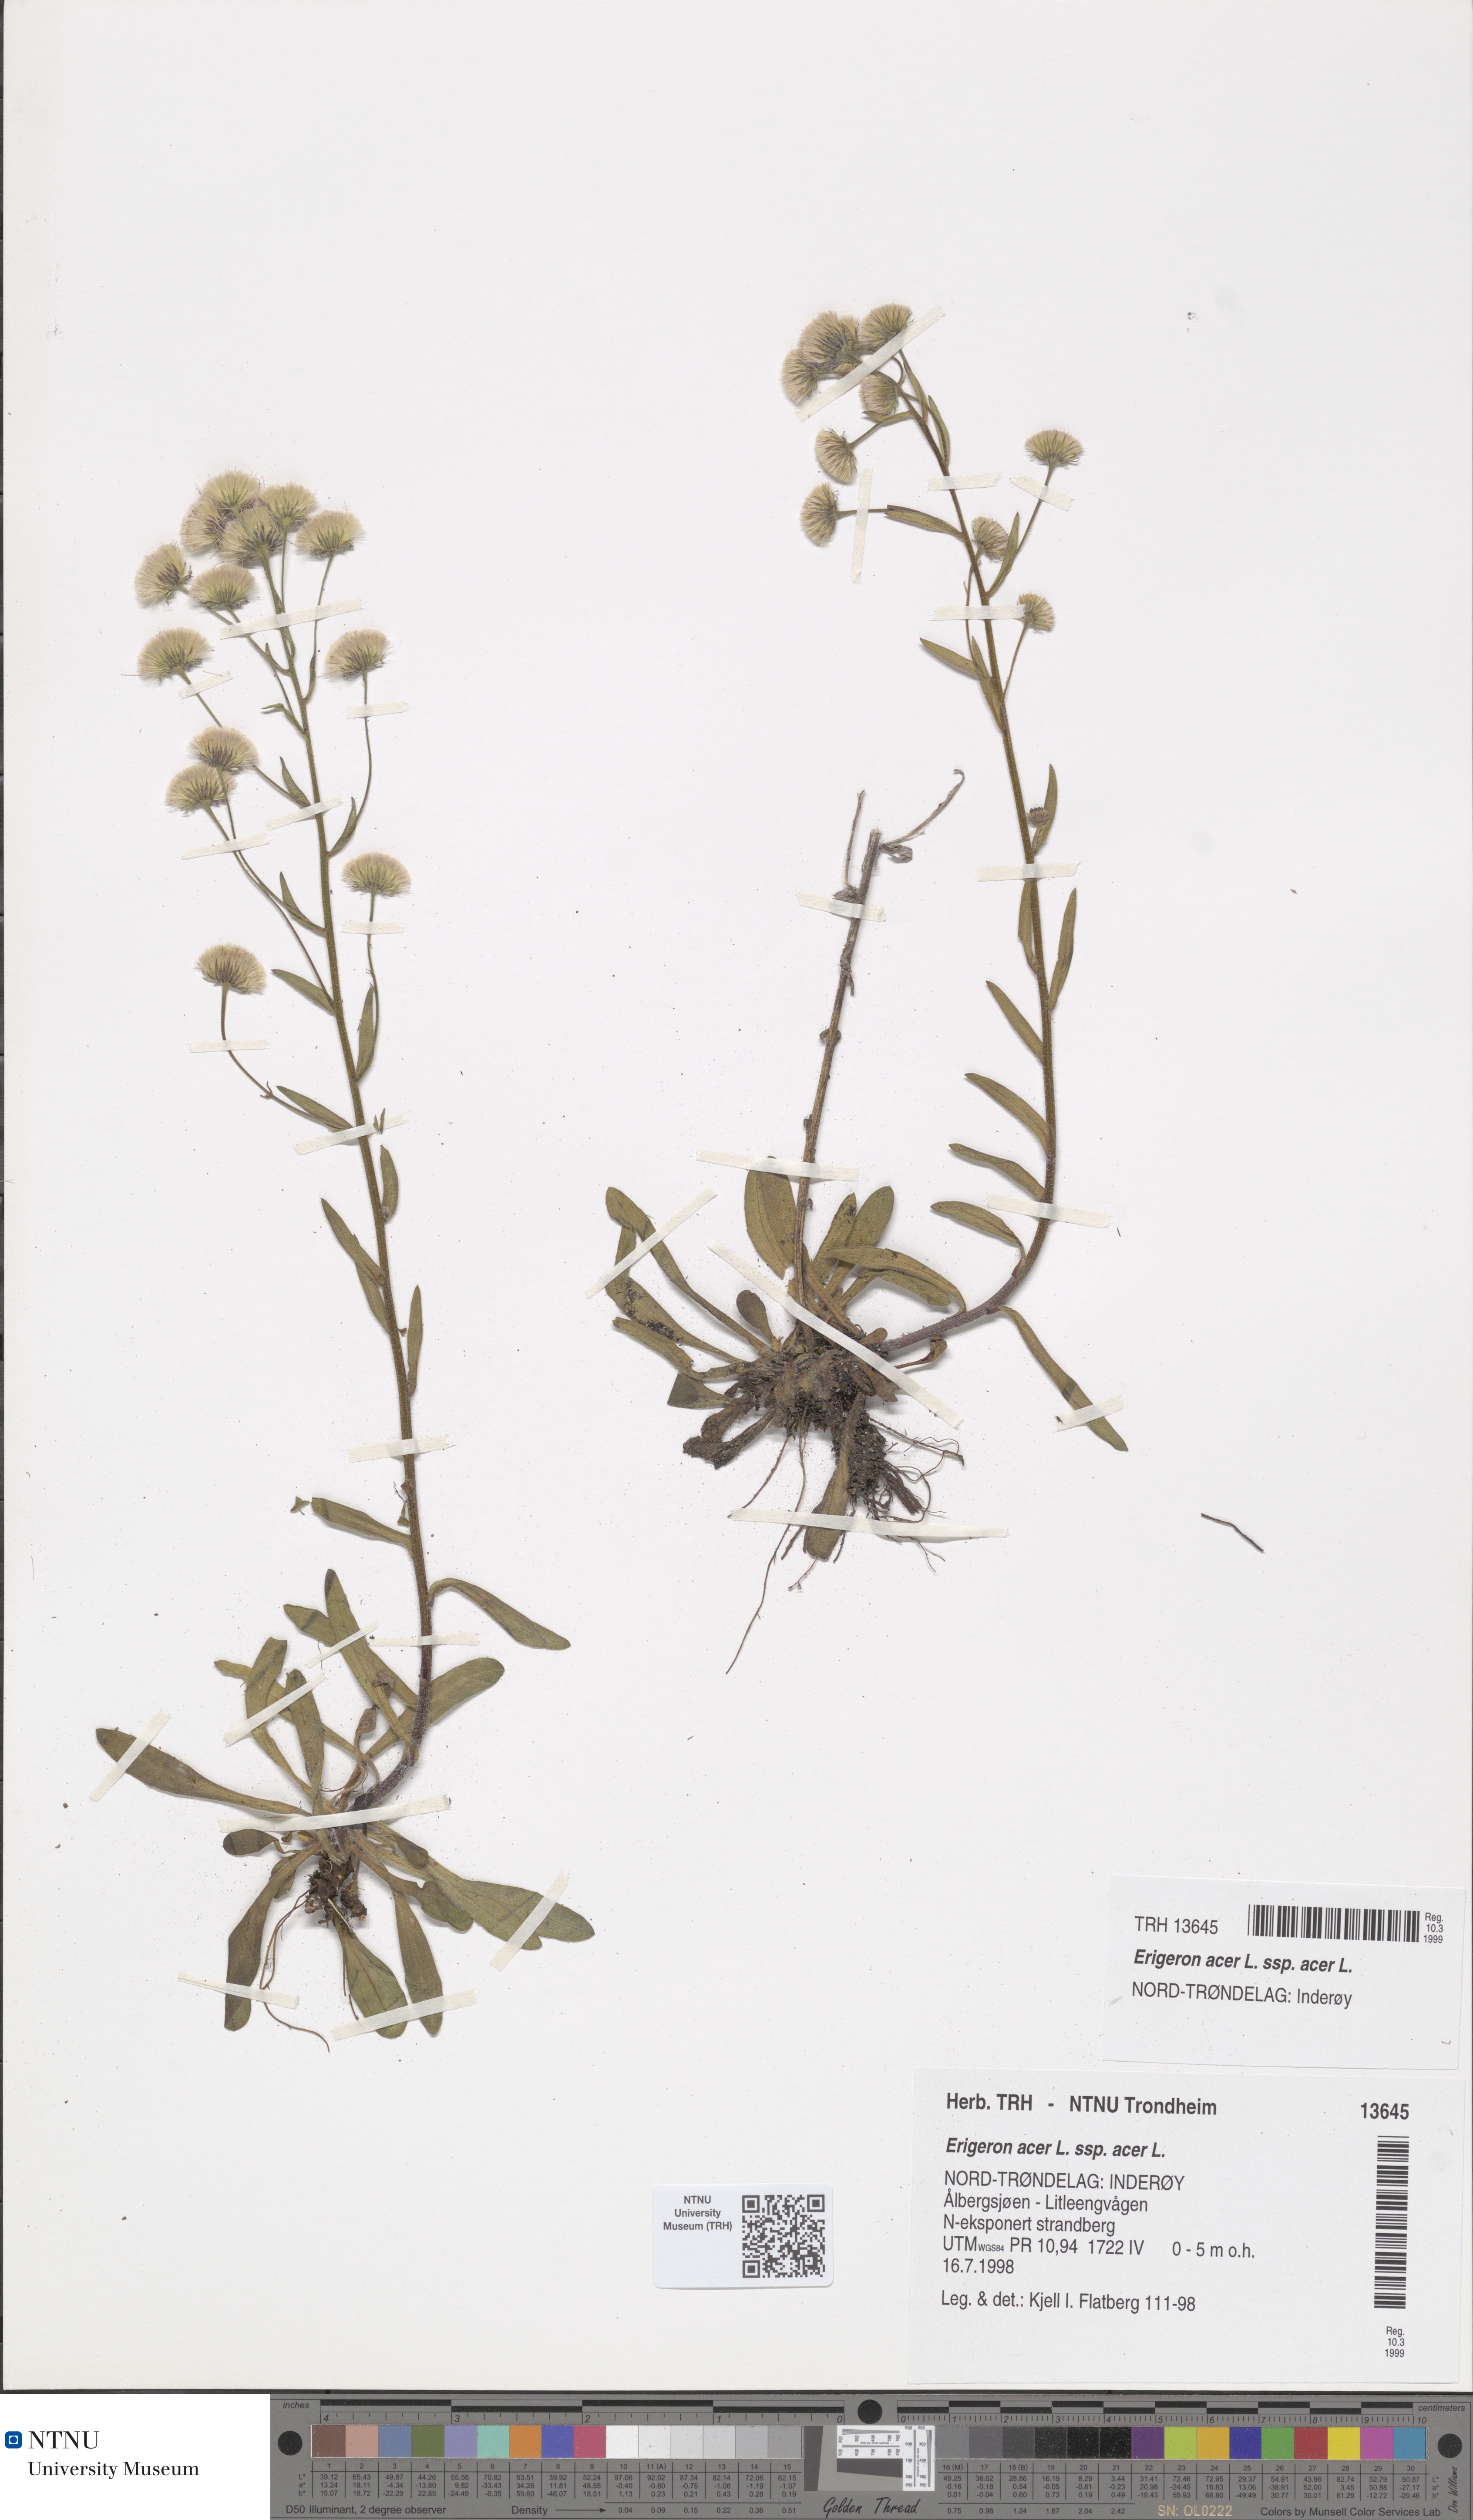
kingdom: Plantae
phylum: Tracheophyta
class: Magnoliopsida
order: Asterales
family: Asteraceae
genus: Erigeron
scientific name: Erigeron acris
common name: Blue fleabane
